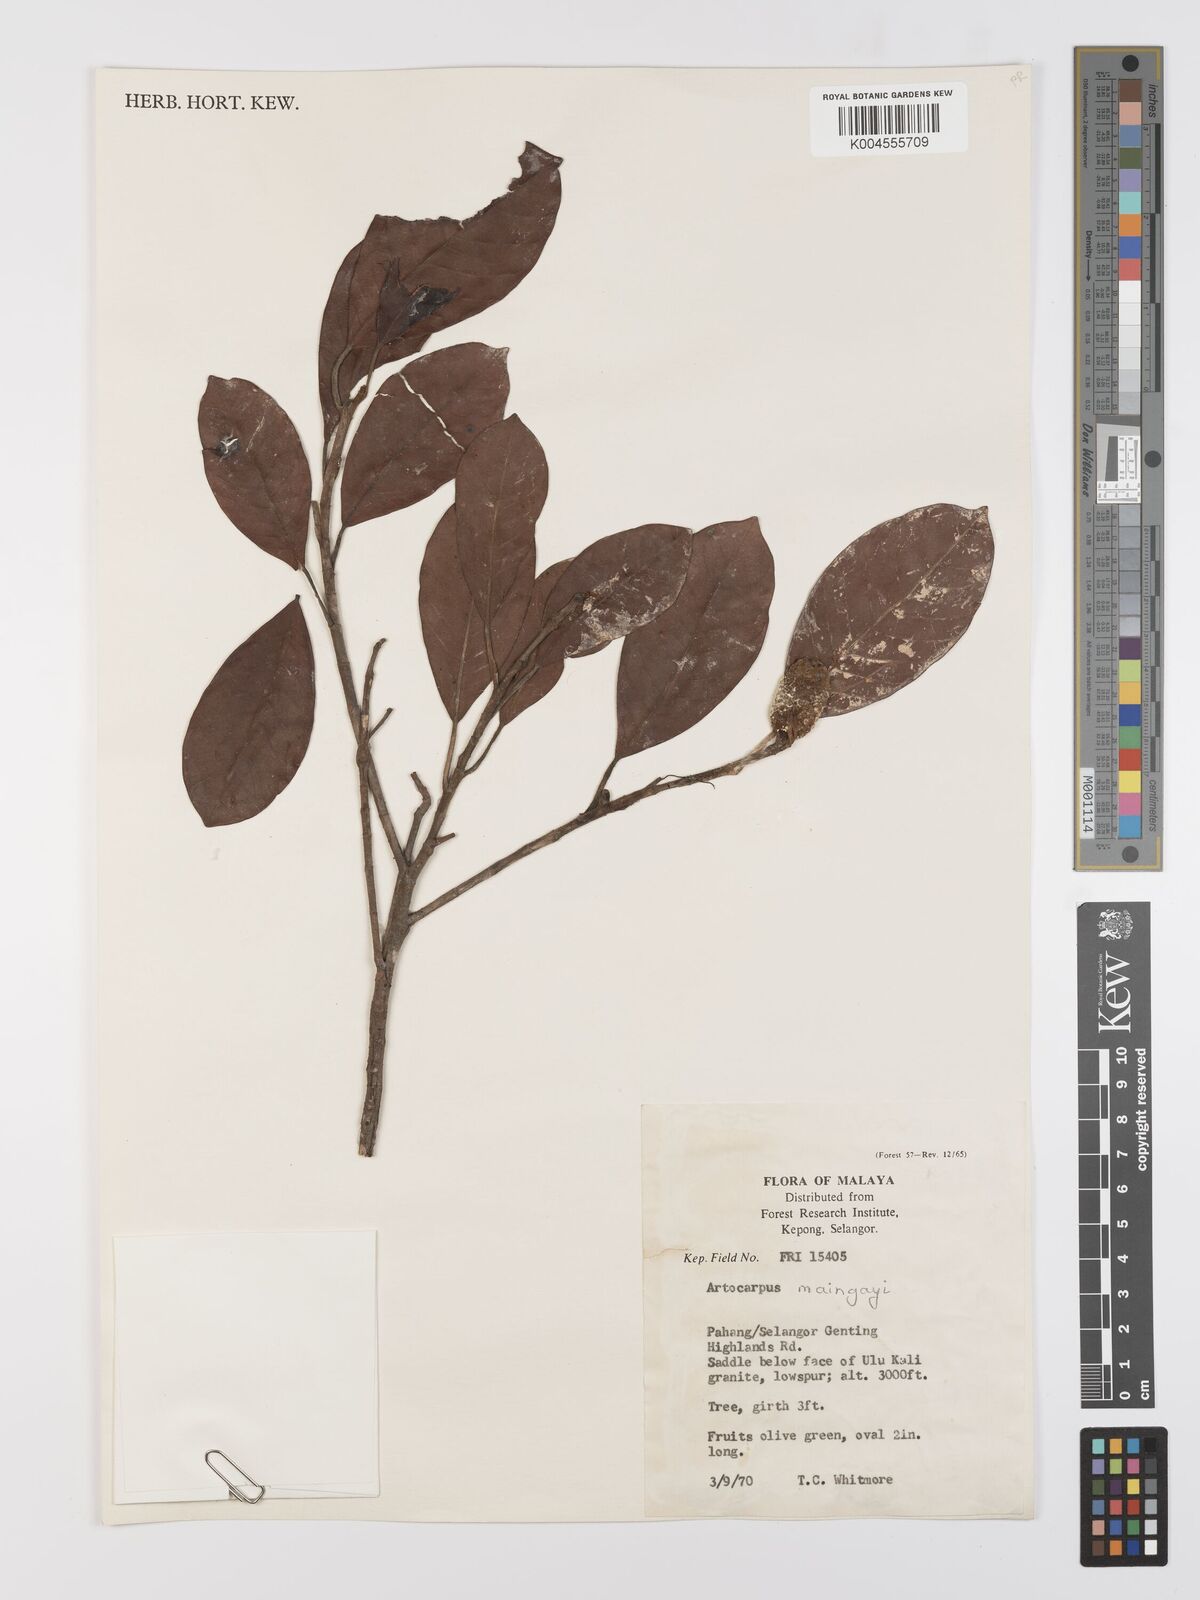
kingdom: Plantae
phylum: Tracheophyta
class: Magnoliopsida
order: Rosales
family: Moraceae
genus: Artocarpus
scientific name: Artocarpus kemando
